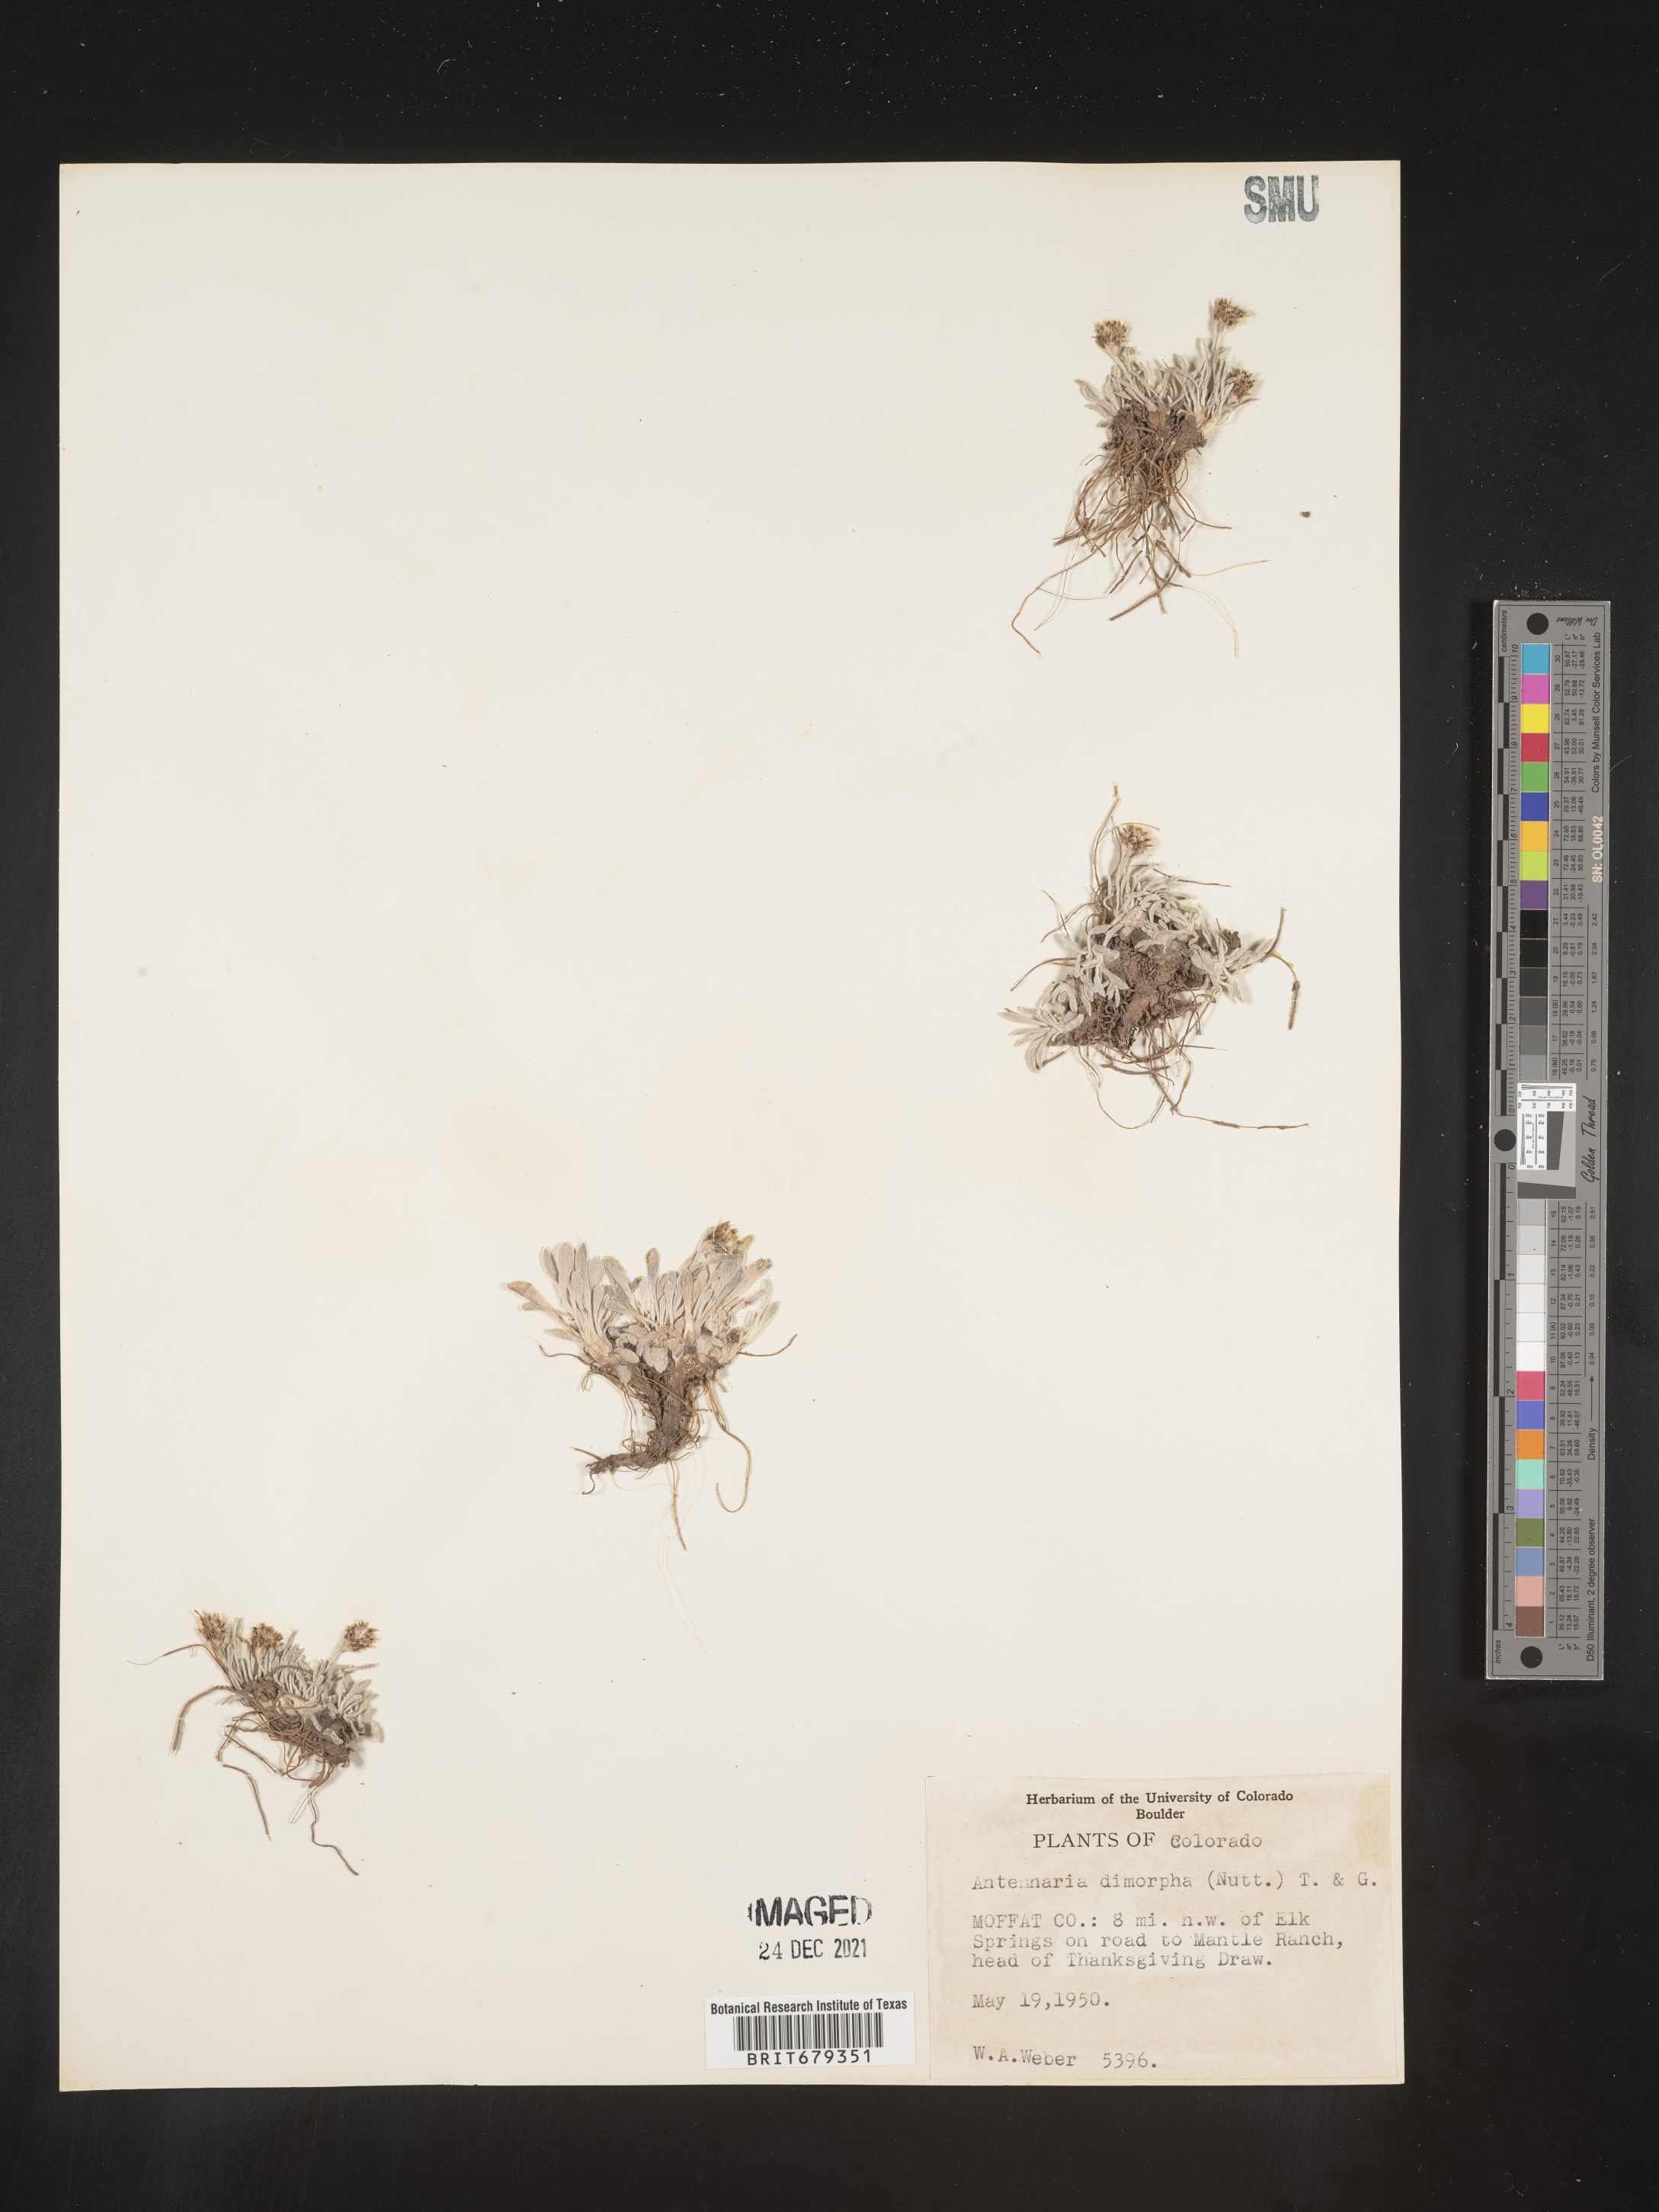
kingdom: Plantae
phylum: Tracheophyta
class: Magnoliopsida
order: Asterales
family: Asteraceae
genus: Antennaria
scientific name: Antennaria dimorpha
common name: Cushion pussytoes
